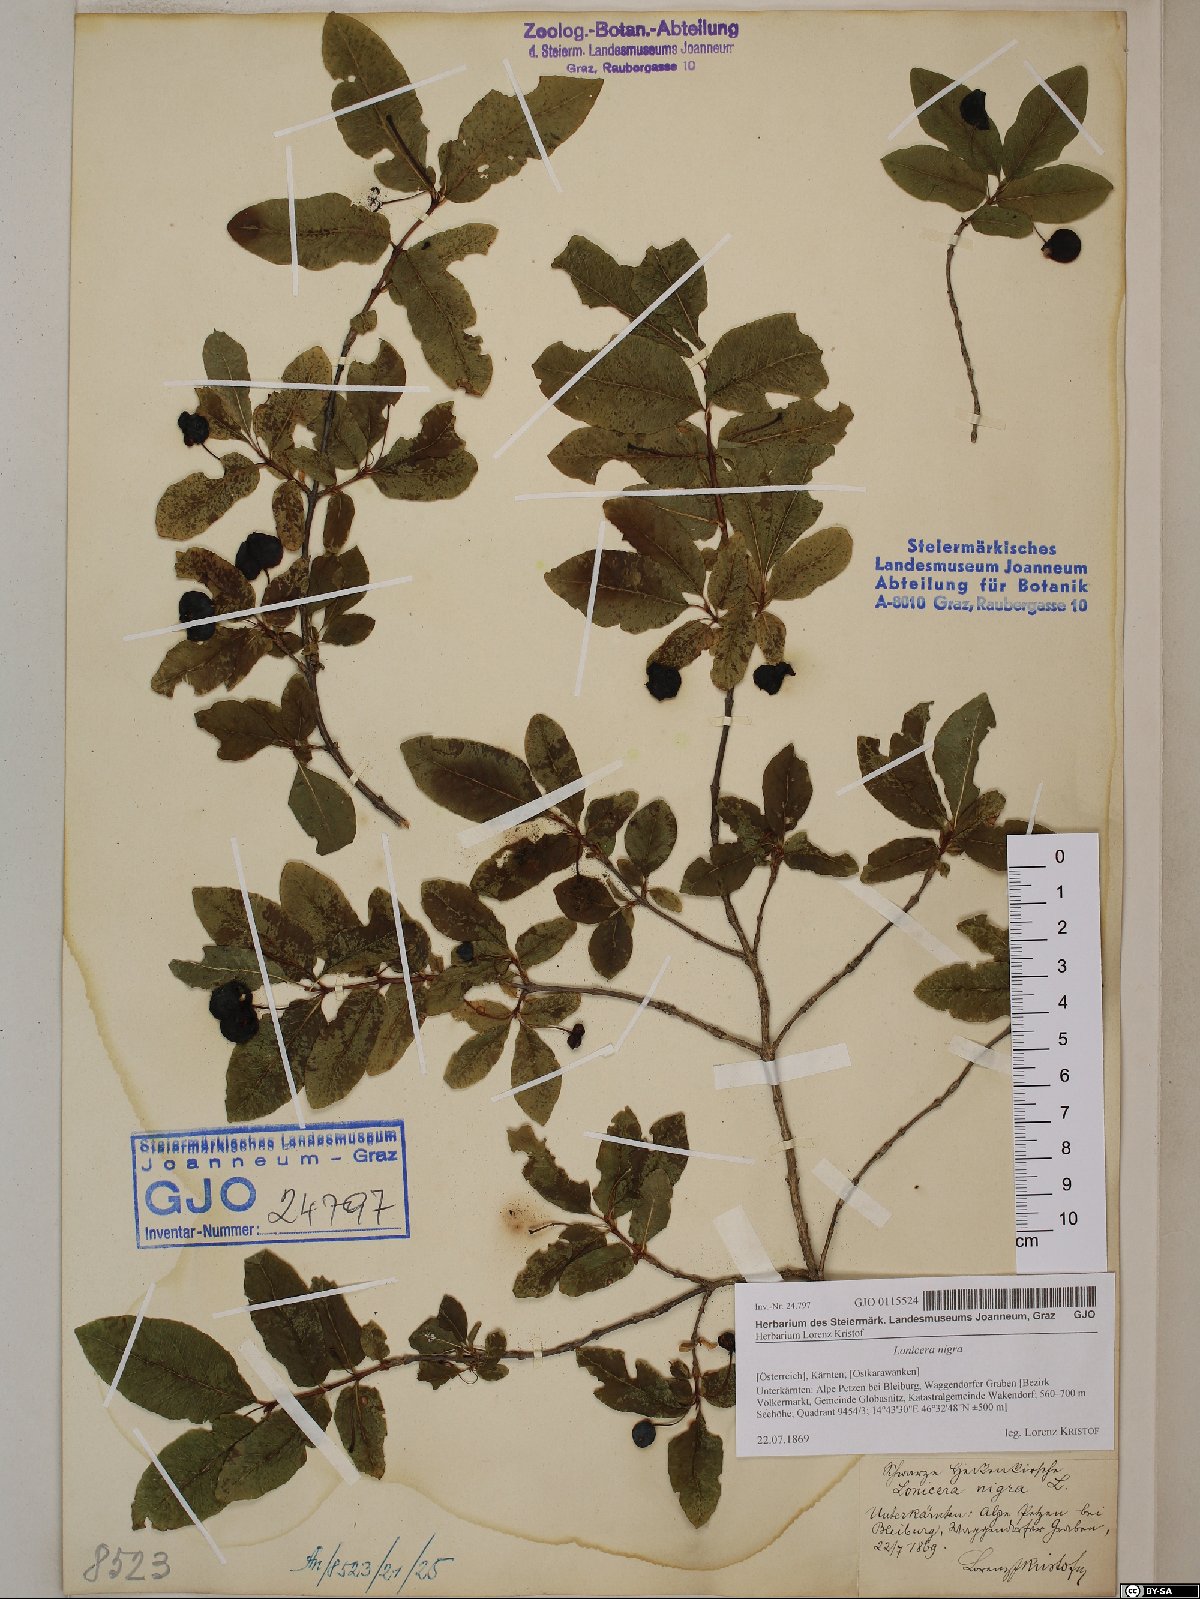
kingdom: Plantae
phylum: Tracheophyta
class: Magnoliopsida
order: Dipsacales
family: Caprifoliaceae
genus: Lonicera
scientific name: Lonicera nigra
